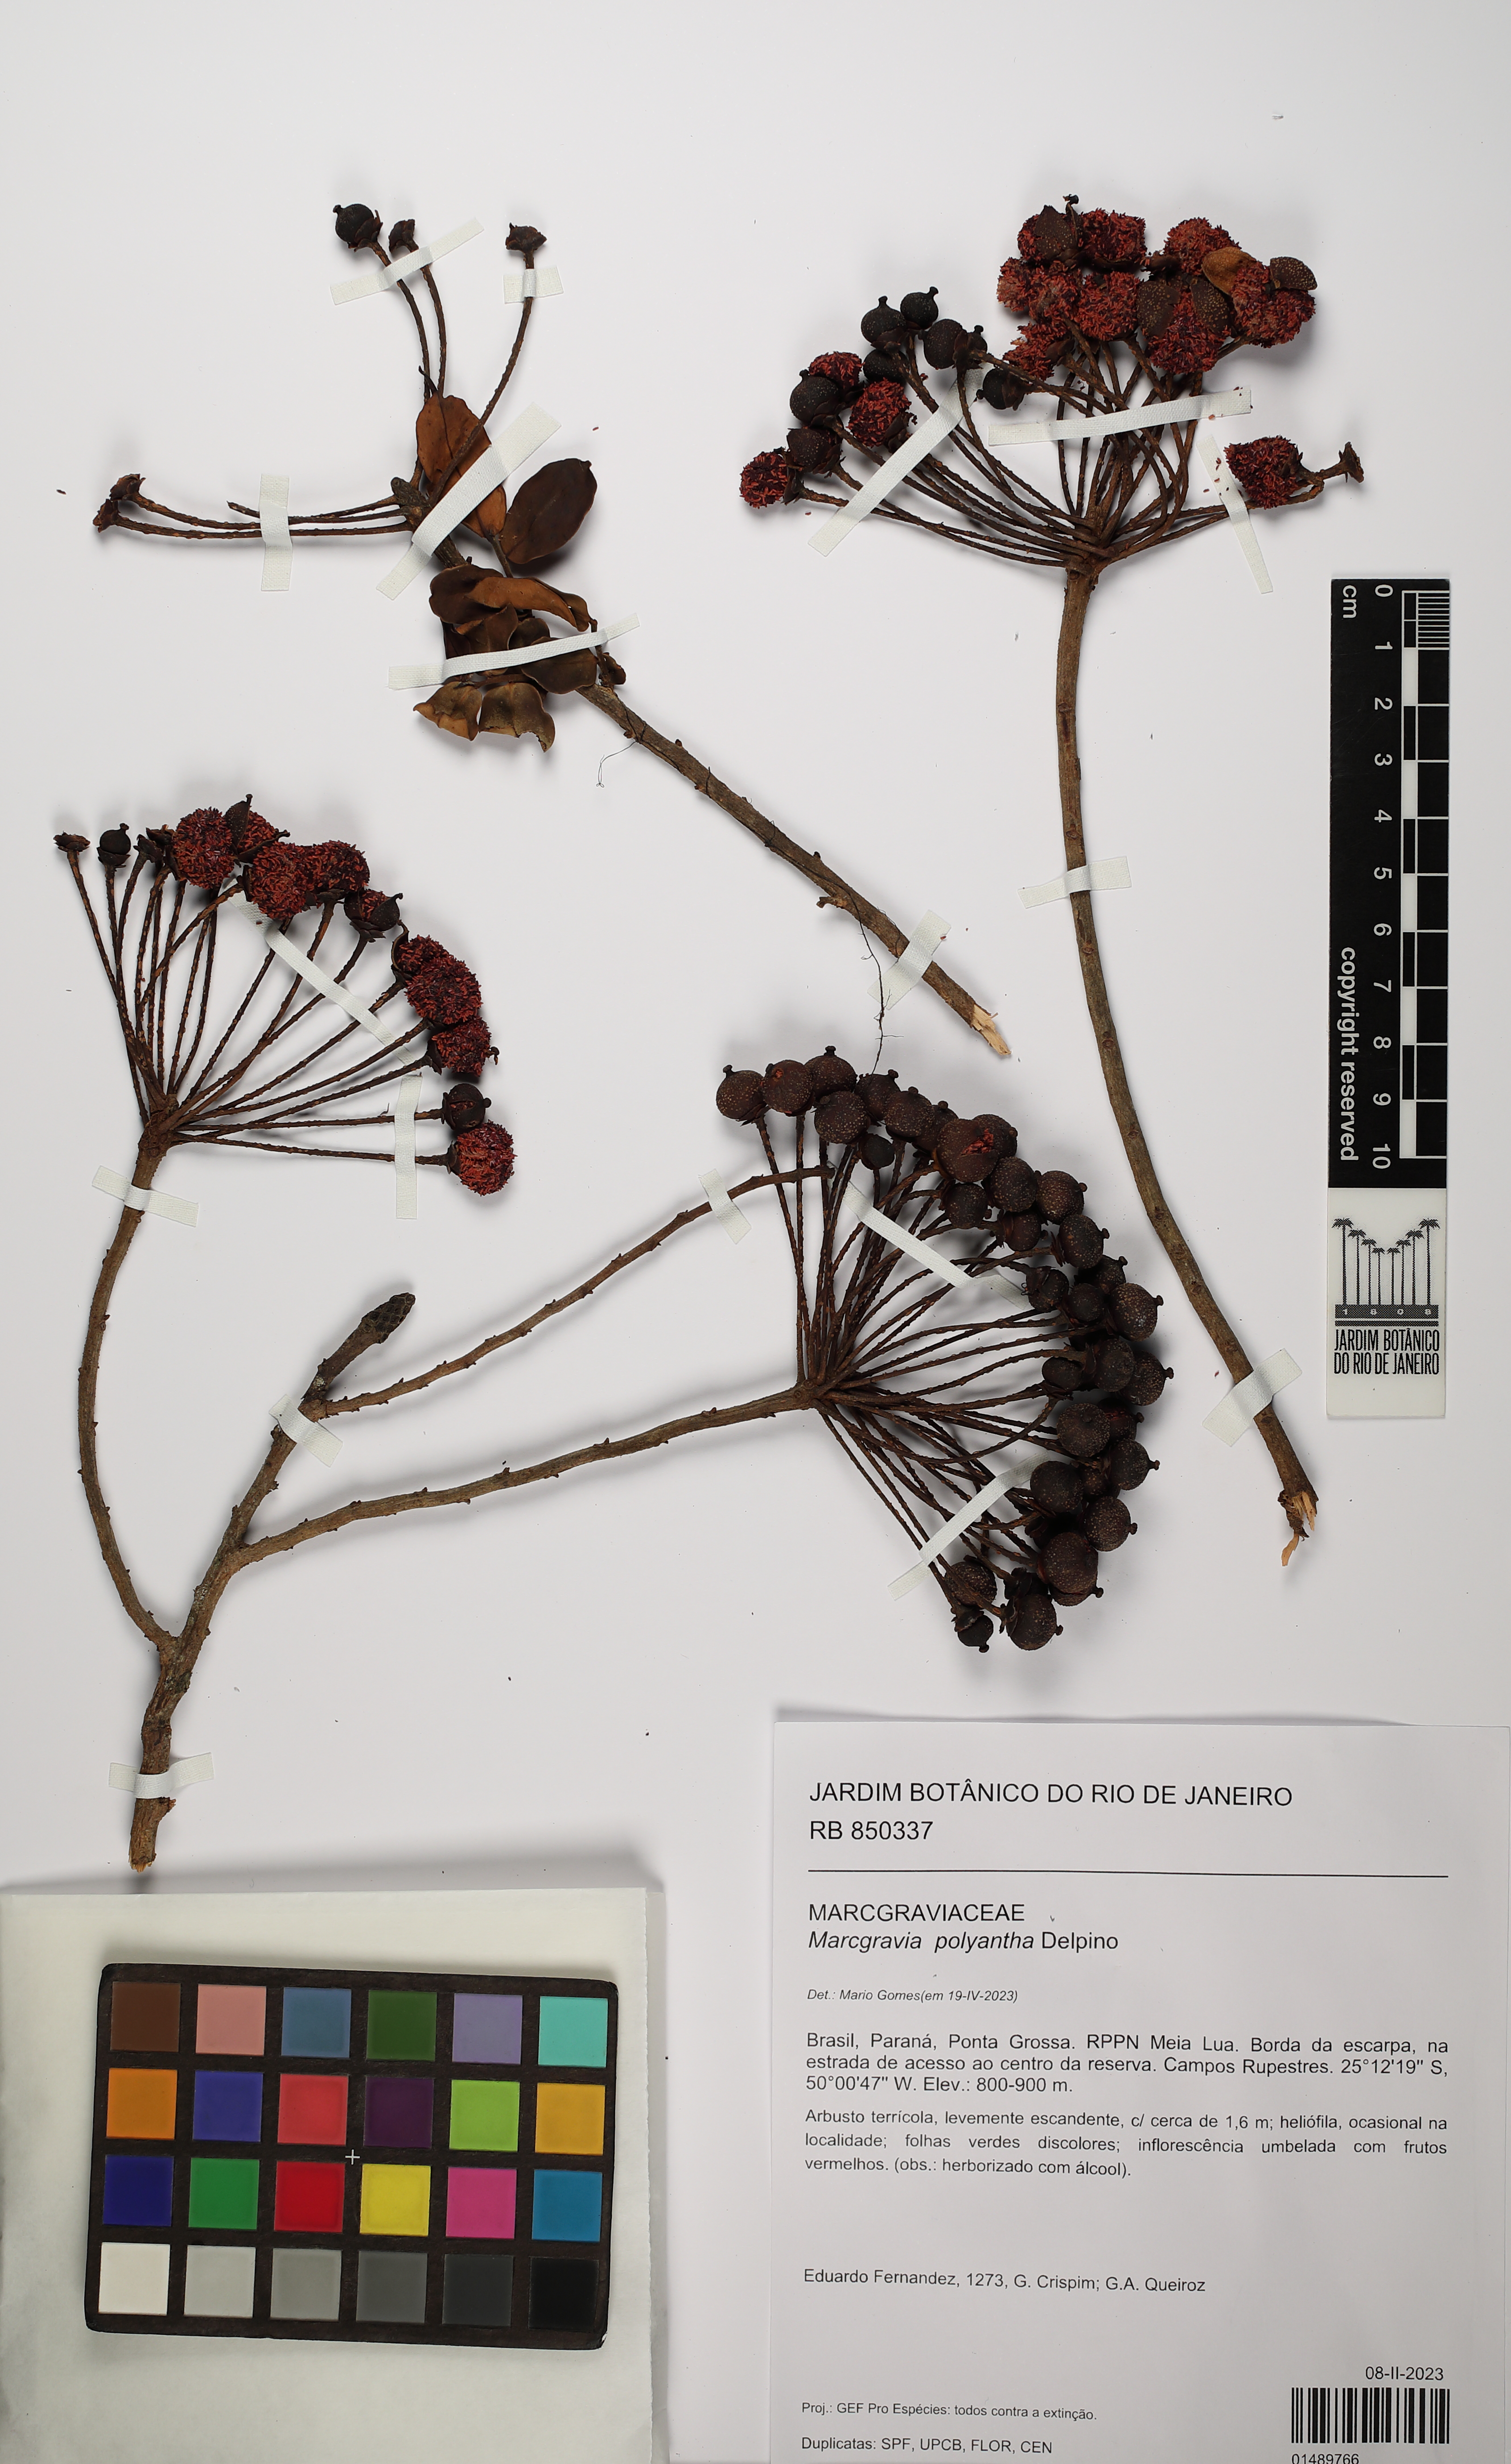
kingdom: Plantae
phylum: Tracheophyta
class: Magnoliopsida
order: Ericales
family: Marcgraviaceae
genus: Marcgravia
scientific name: Marcgravia polyantha
